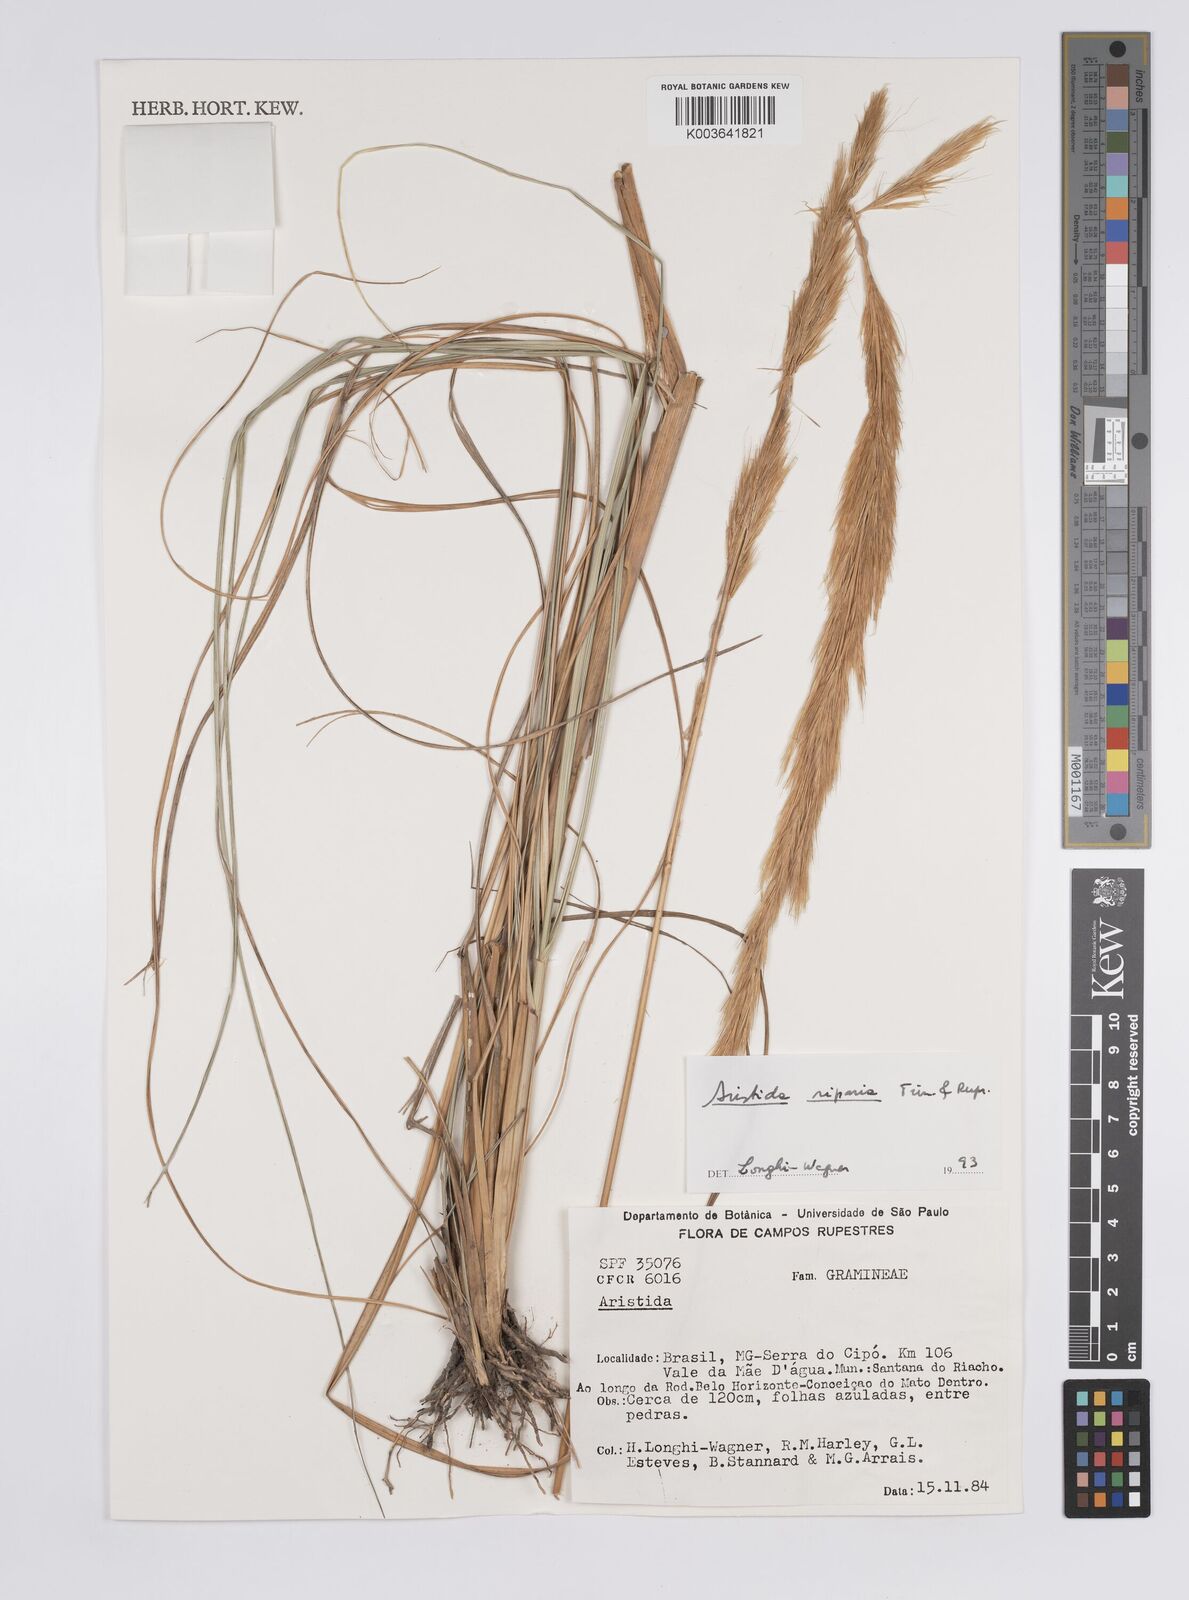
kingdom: Plantae
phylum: Tracheophyta
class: Liliopsida
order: Poales
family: Poaceae
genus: Aristida
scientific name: Aristida riparia
